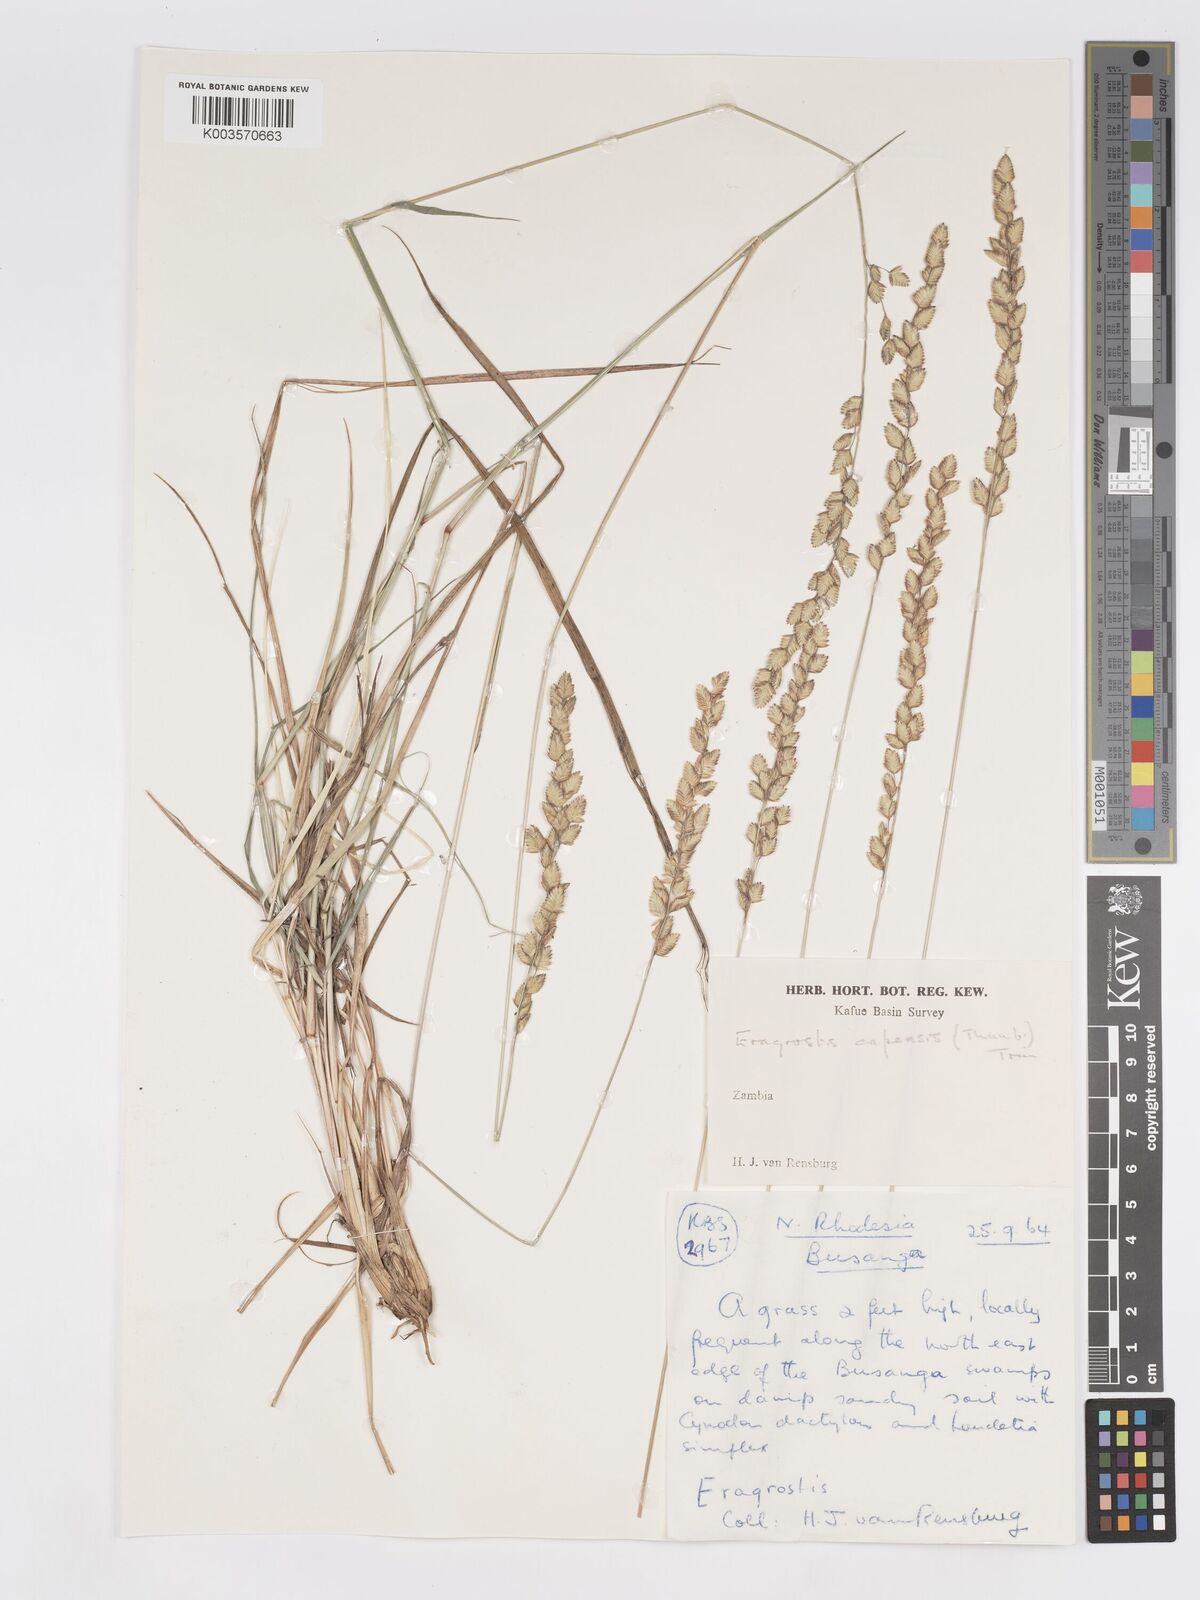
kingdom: Plantae
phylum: Tracheophyta
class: Liliopsida
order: Poales
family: Poaceae
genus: Eragrostis
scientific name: Eragrostis capensis
